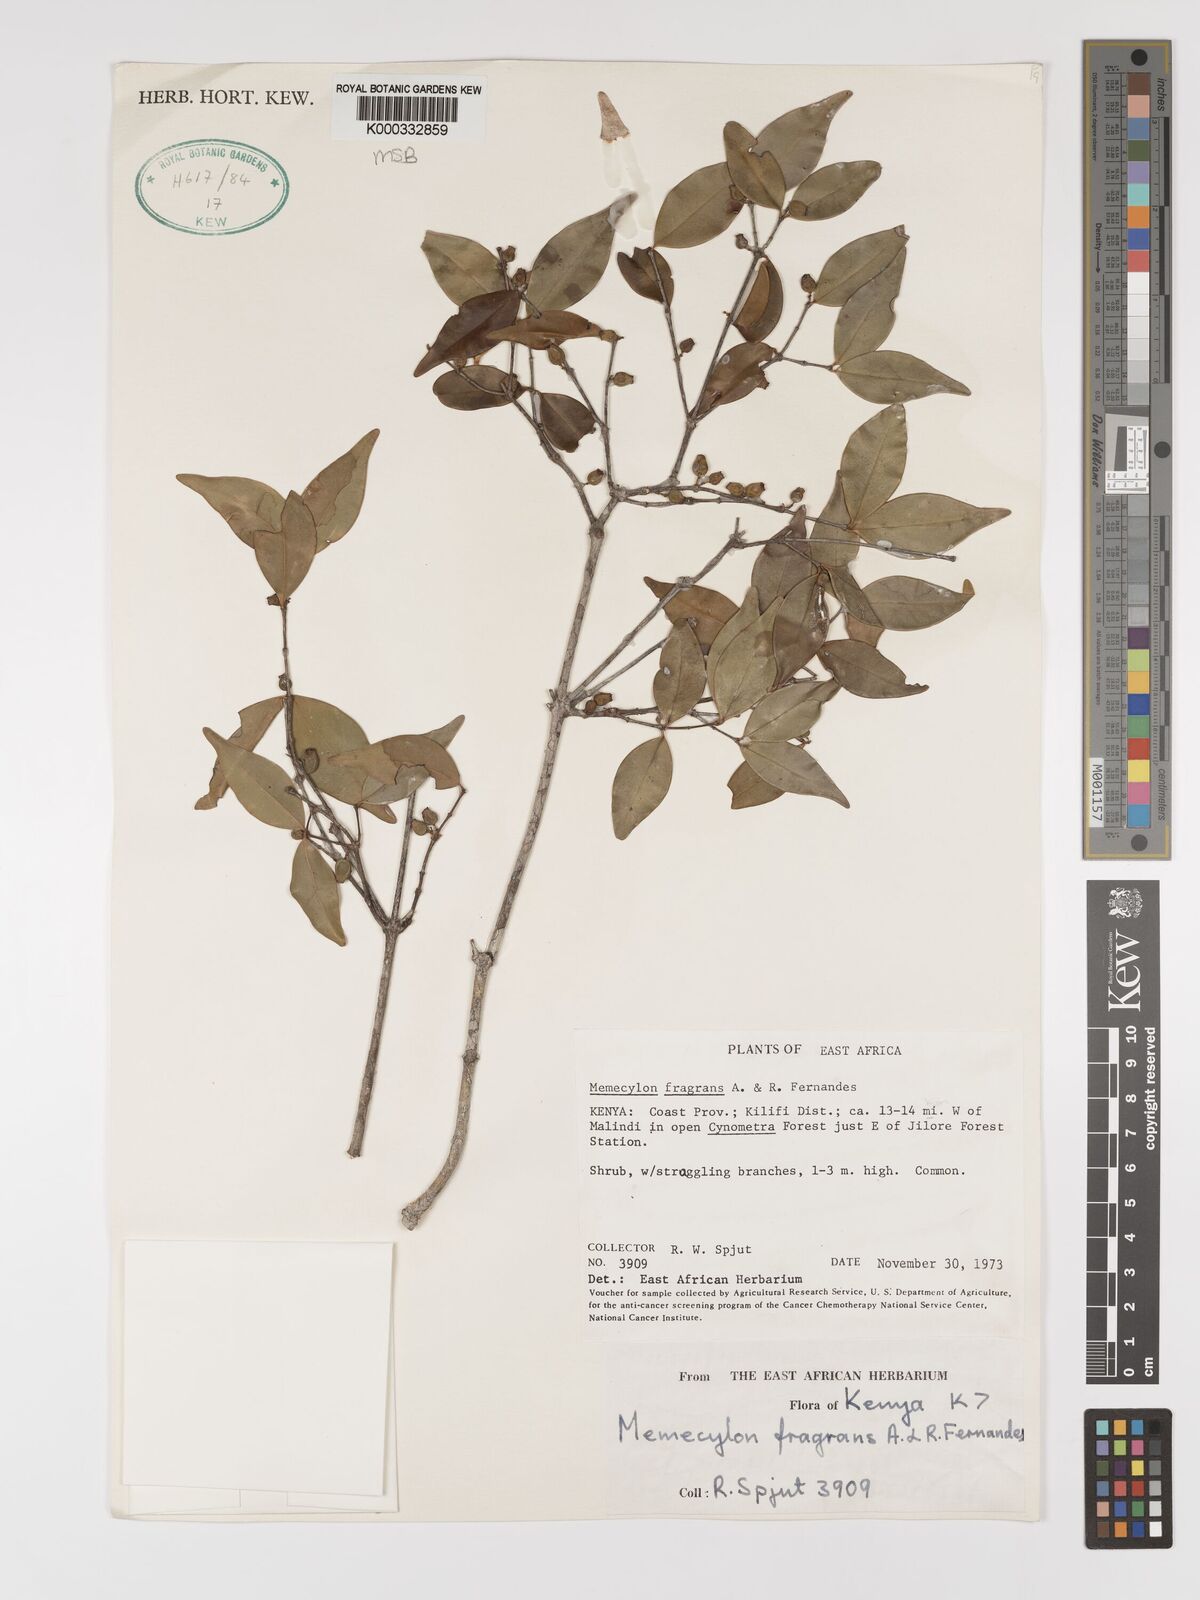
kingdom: Plantae
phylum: Tracheophyta
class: Magnoliopsida
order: Myrtales
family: Melastomataceae
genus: Memecylon
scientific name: Memecylon fragrans
